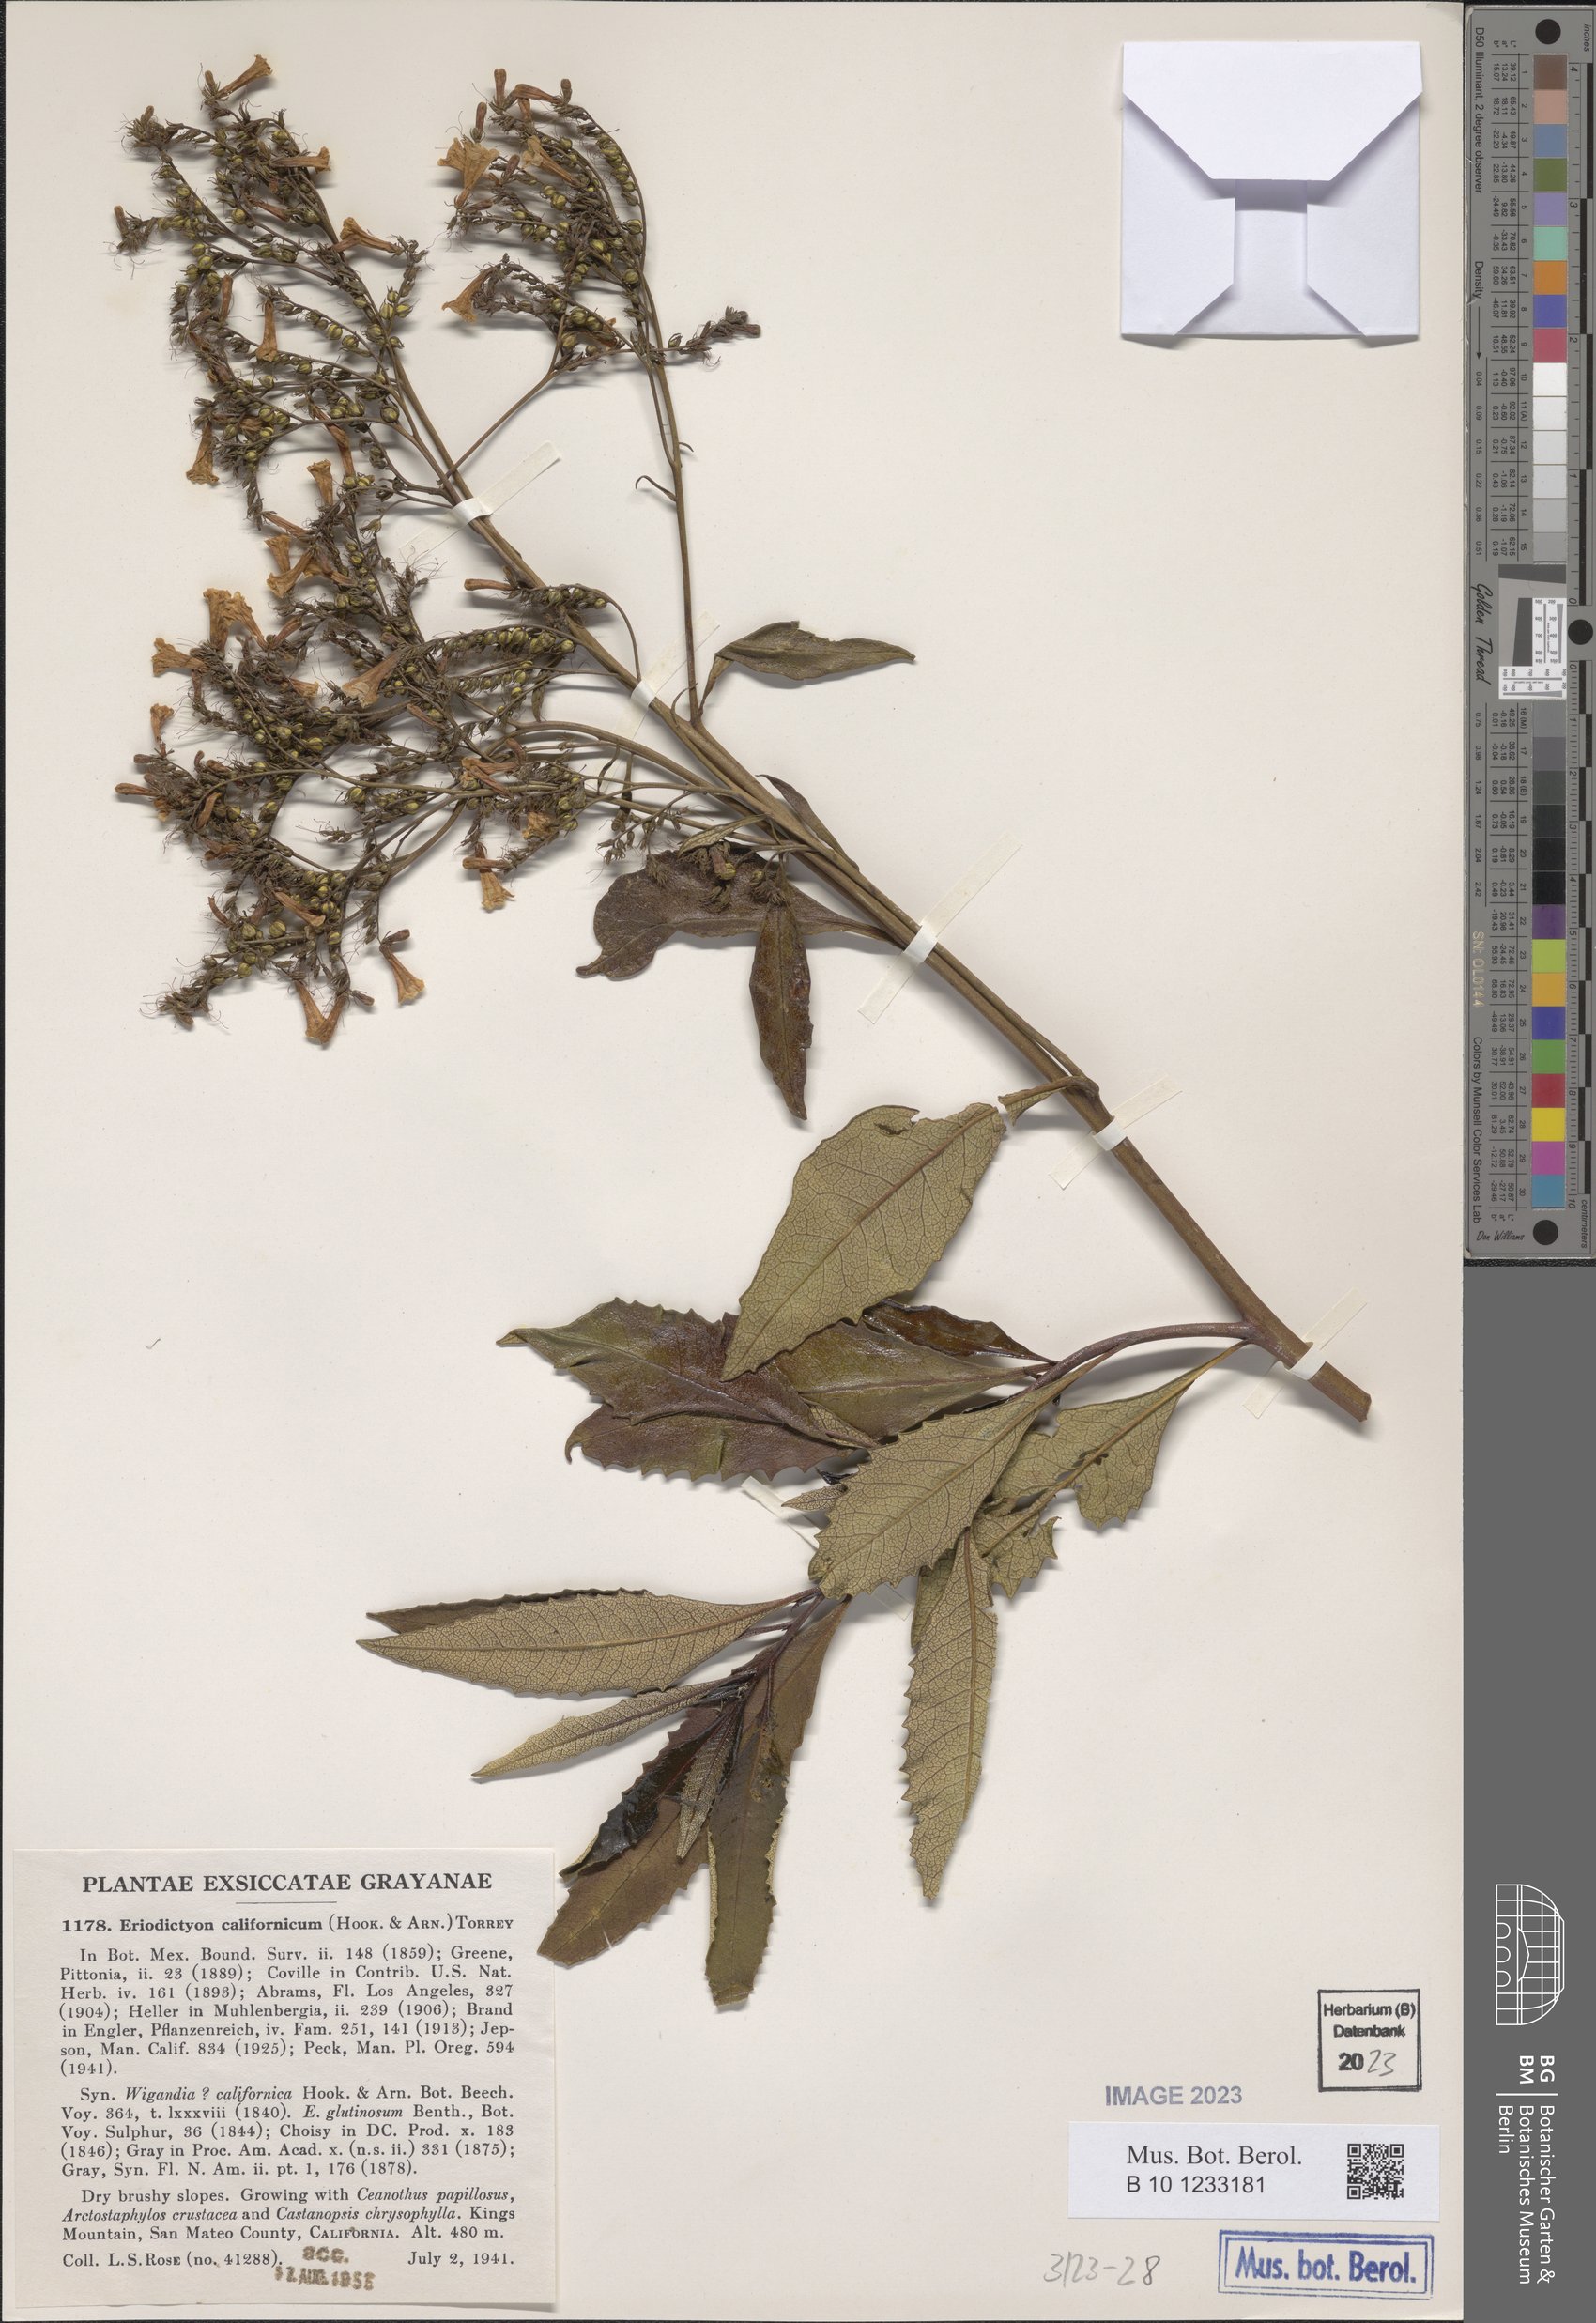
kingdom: Plantae
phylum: Tracheophyta
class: Magnoliopsida
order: Boraginales
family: Namaceae
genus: Eriodictyon
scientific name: Eriodictyon crassifolium
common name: Thick-leaf yerba-santa
